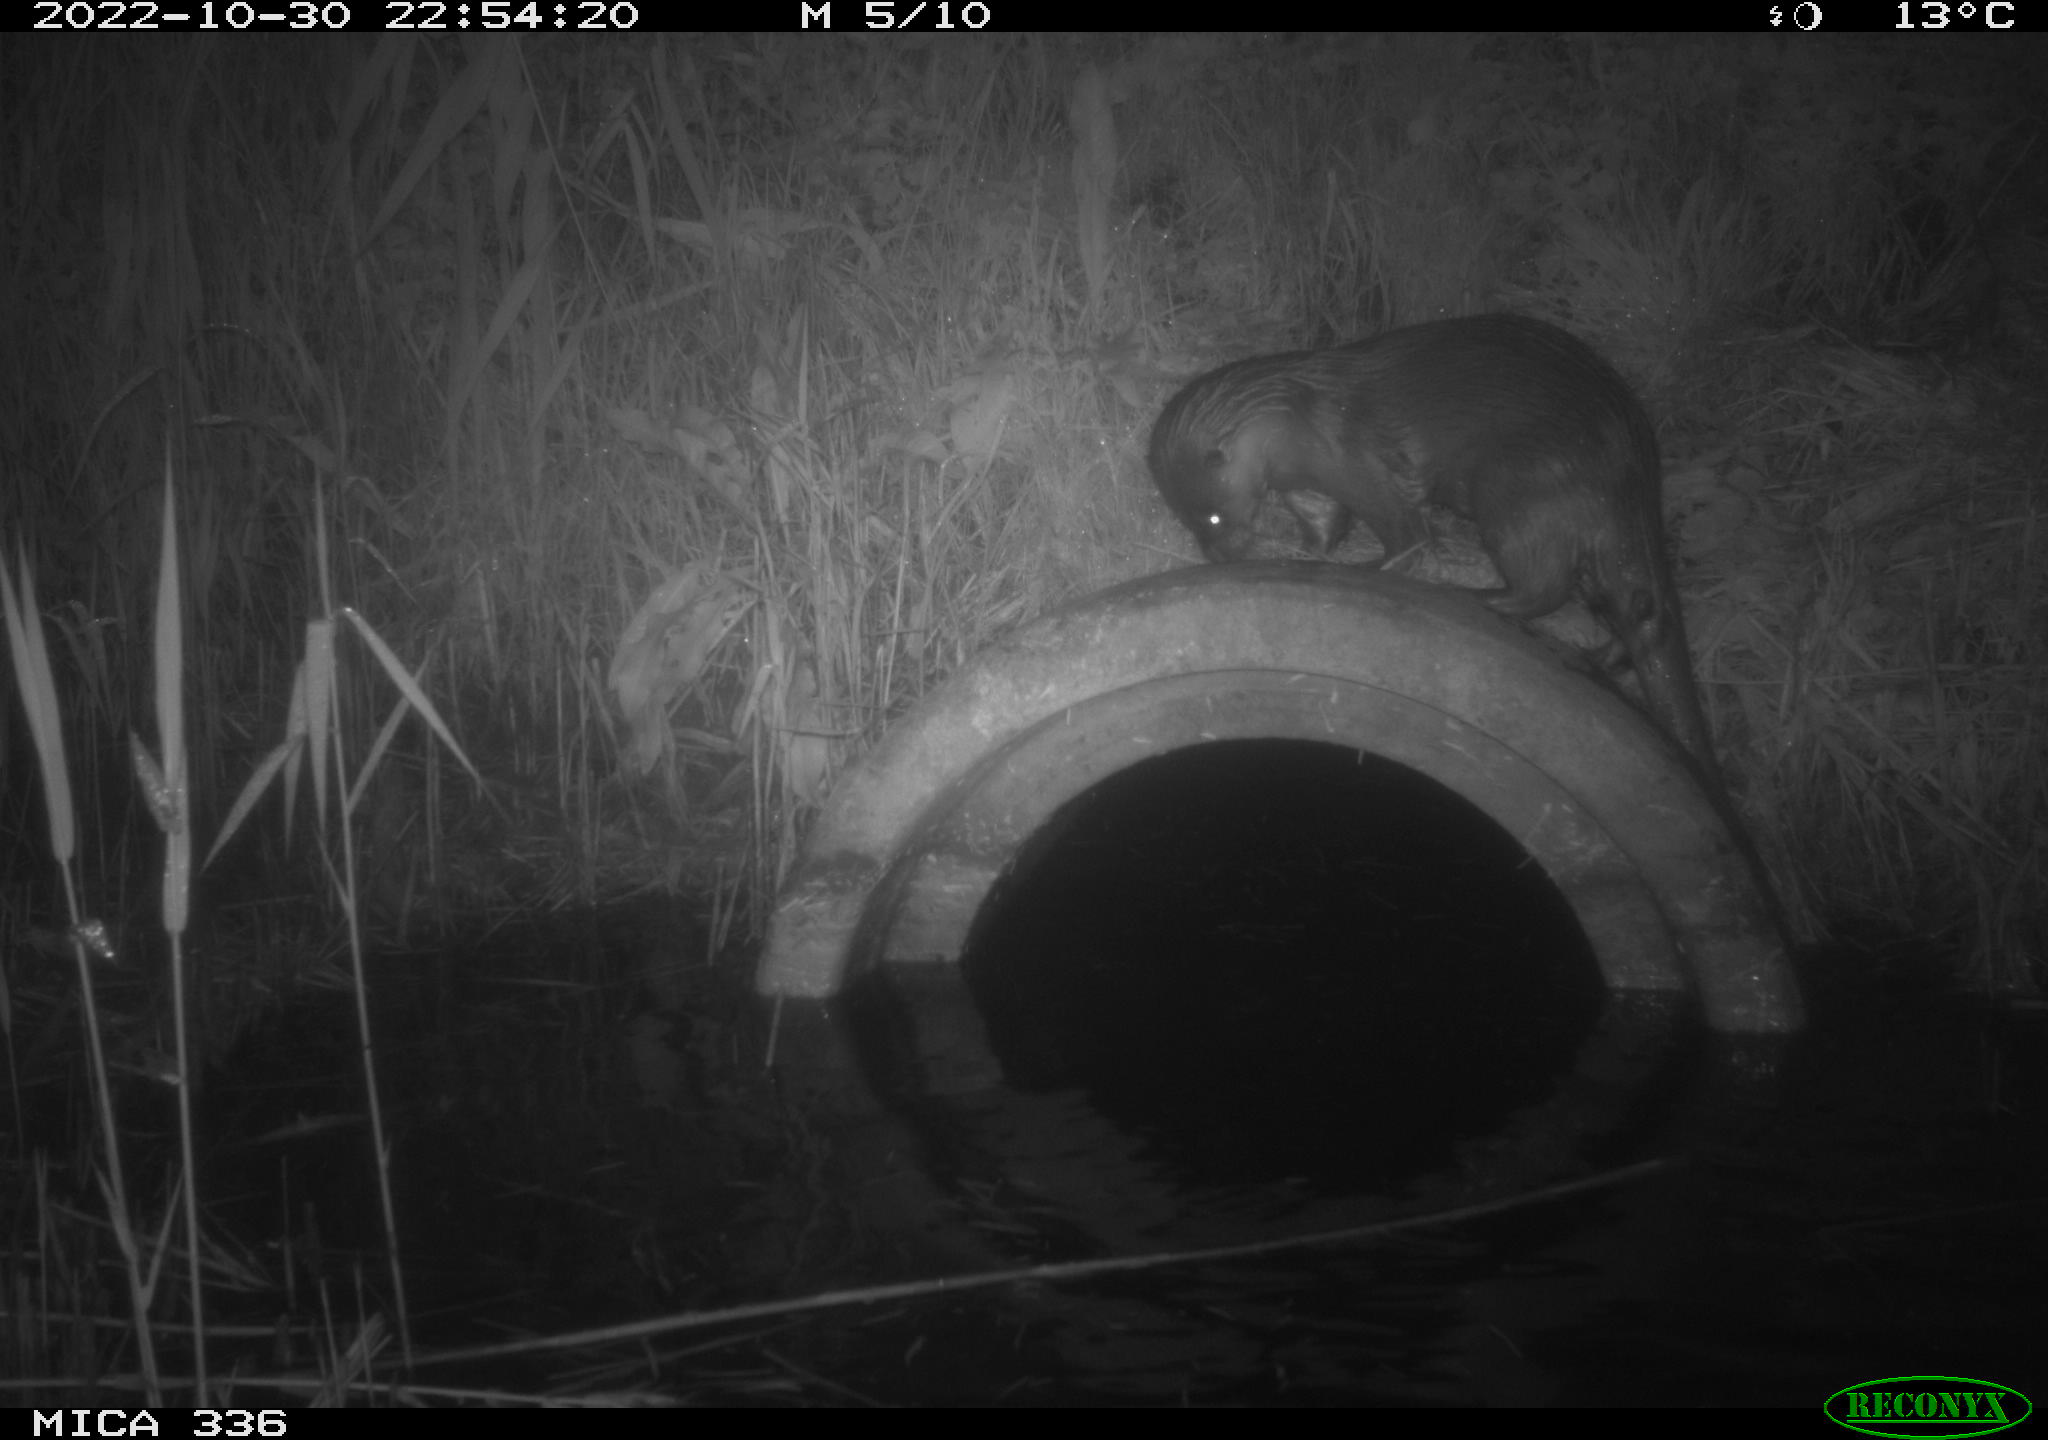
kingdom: Animalia
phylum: Chordata
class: Mammalia
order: Carnivora
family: Mustelidae
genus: Lutra
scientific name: Lutra lutra
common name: European otter
